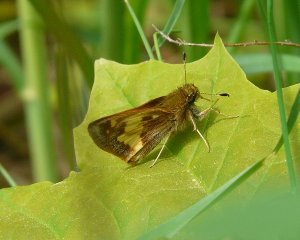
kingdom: Animalia
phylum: Arthropoda
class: Insecta
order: Lepidoptera
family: Hesperiidae
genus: Lon
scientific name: Lon hobomok
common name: Hobomok Skipper
